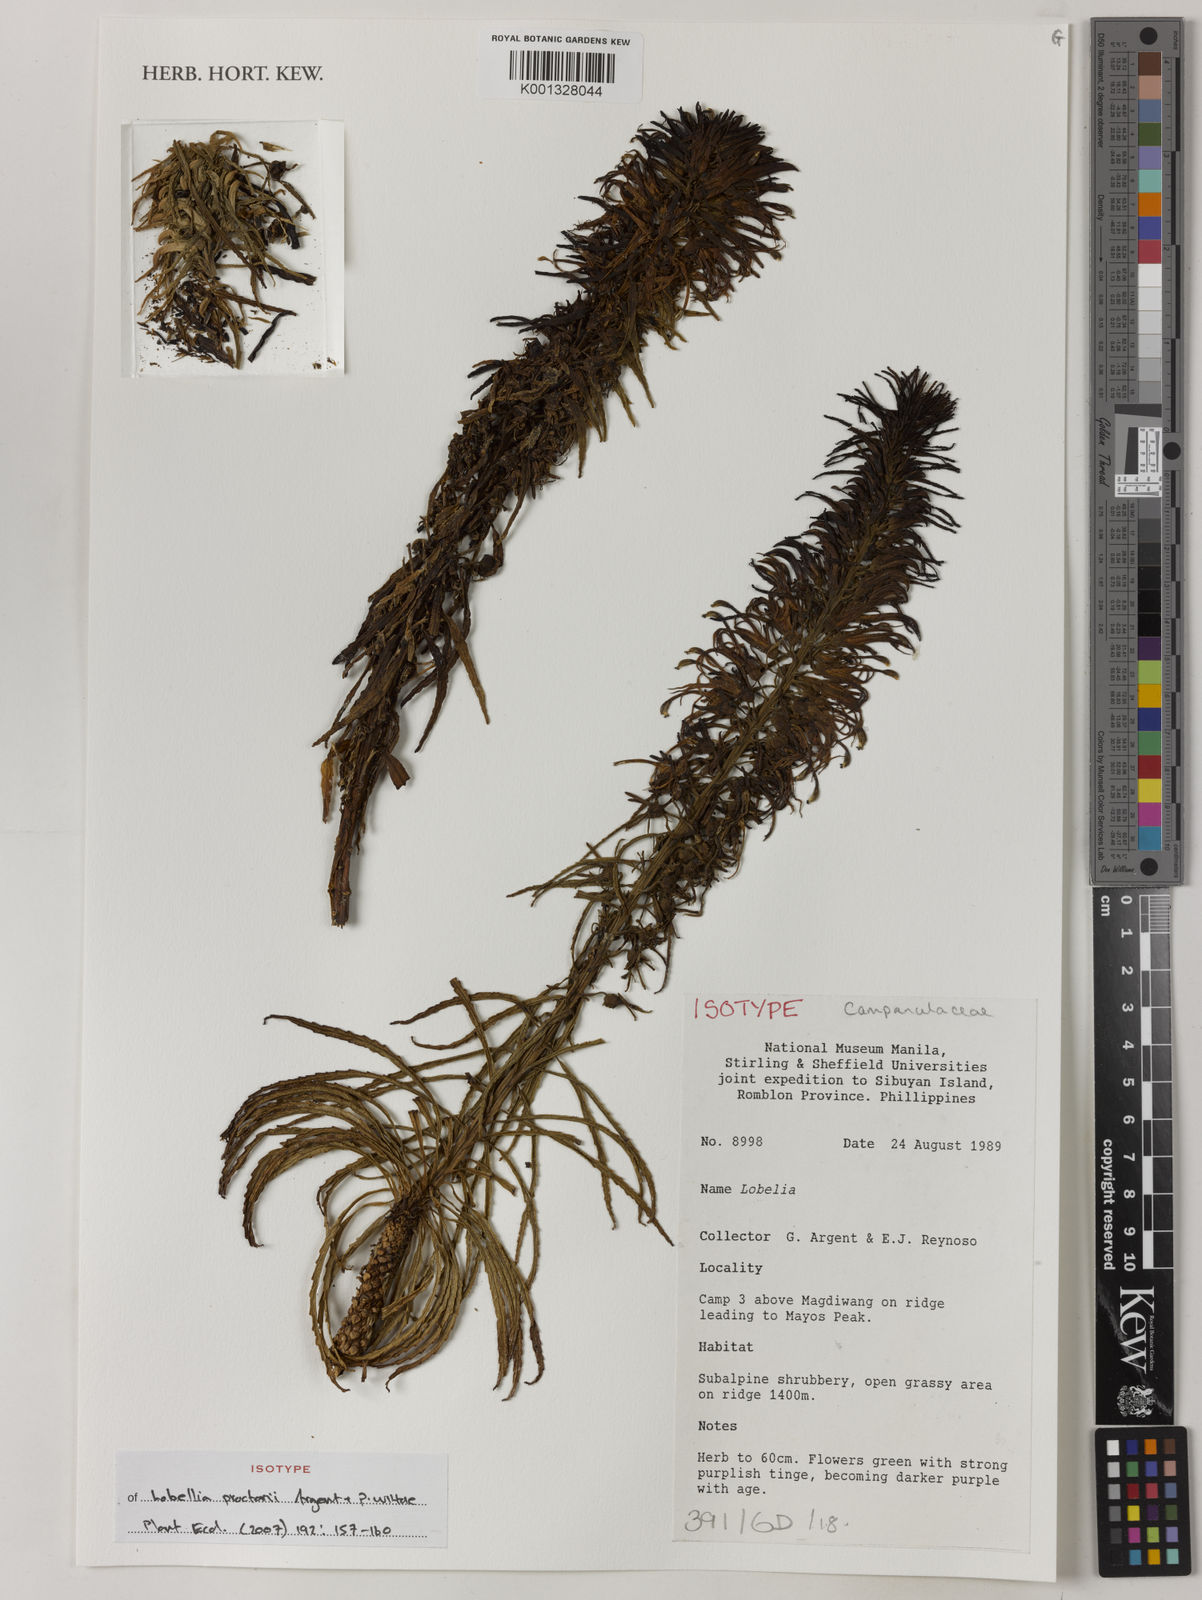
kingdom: Plantae
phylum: Tracheophyta
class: Magnoliopsida
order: Asterales
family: Campanulaceae
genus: Lobelia
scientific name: Lobelia proctorii
